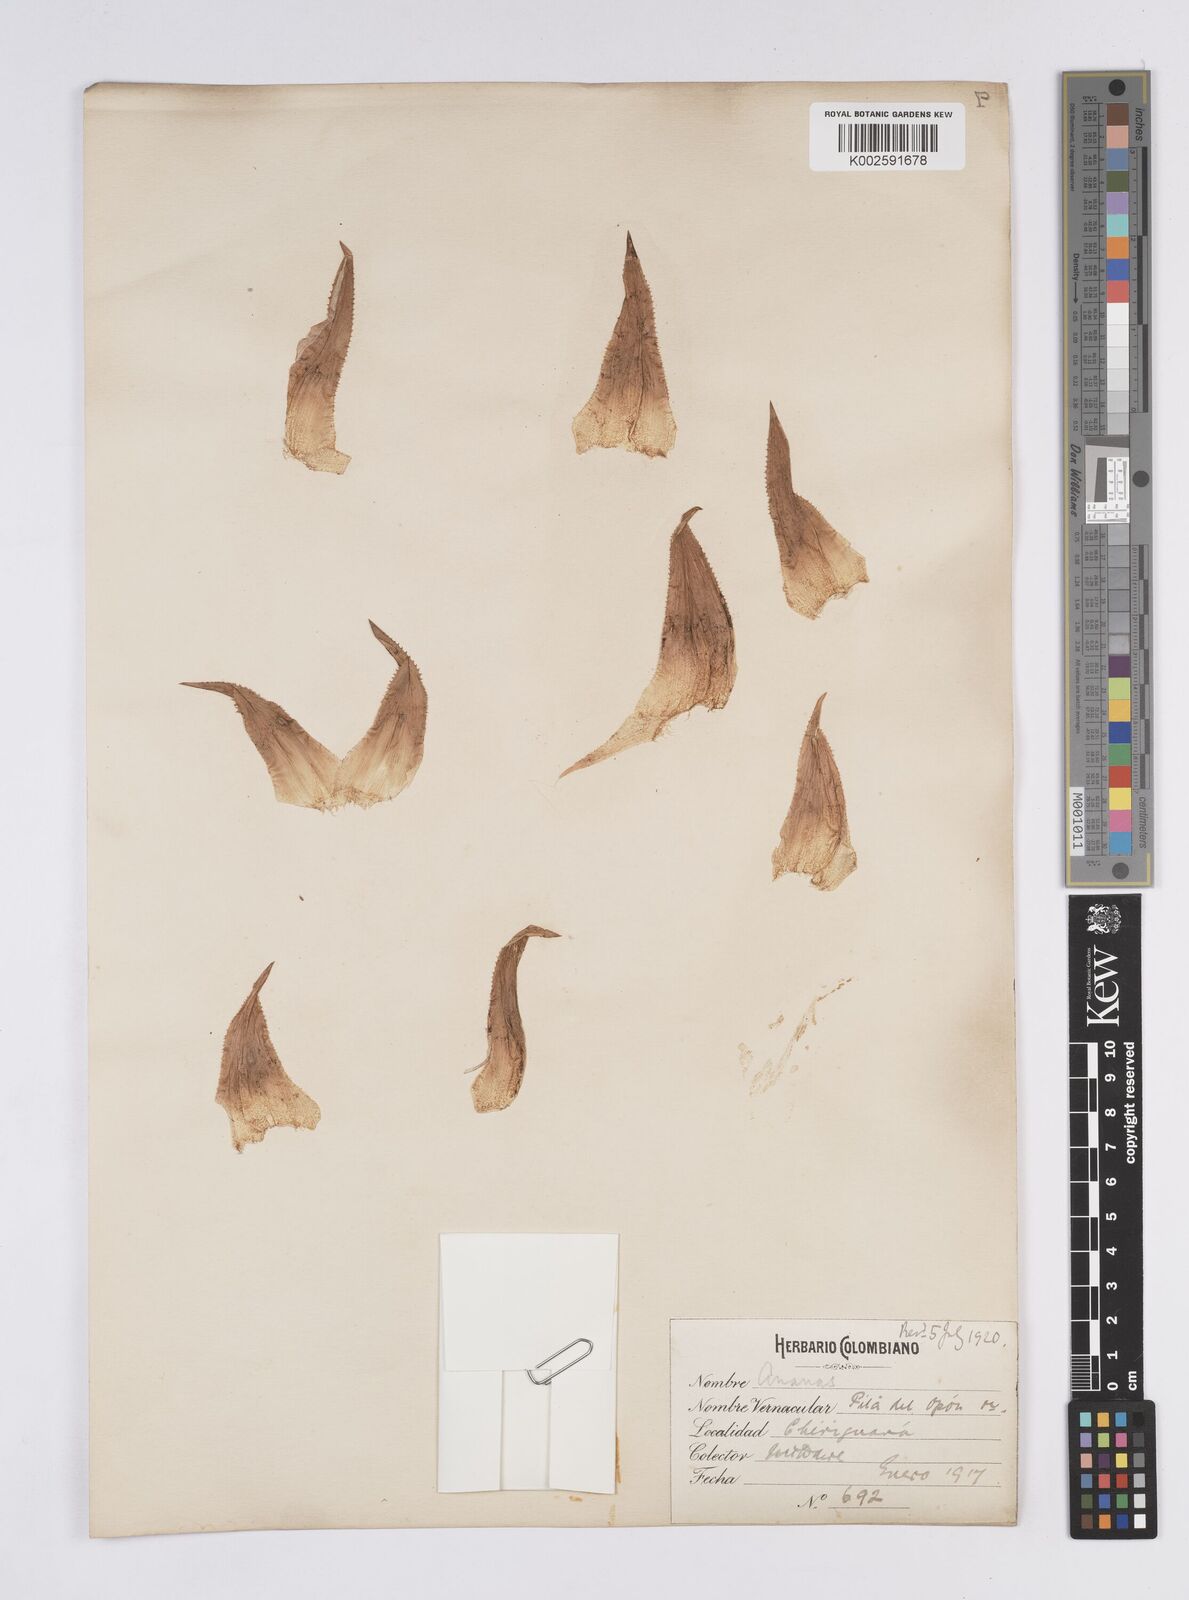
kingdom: Plantae
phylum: Tracheophyta
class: Liliopsida
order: Poales
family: Bromeliaceae
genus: Aechmea
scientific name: Aechmea magdalenae
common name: Arghan
